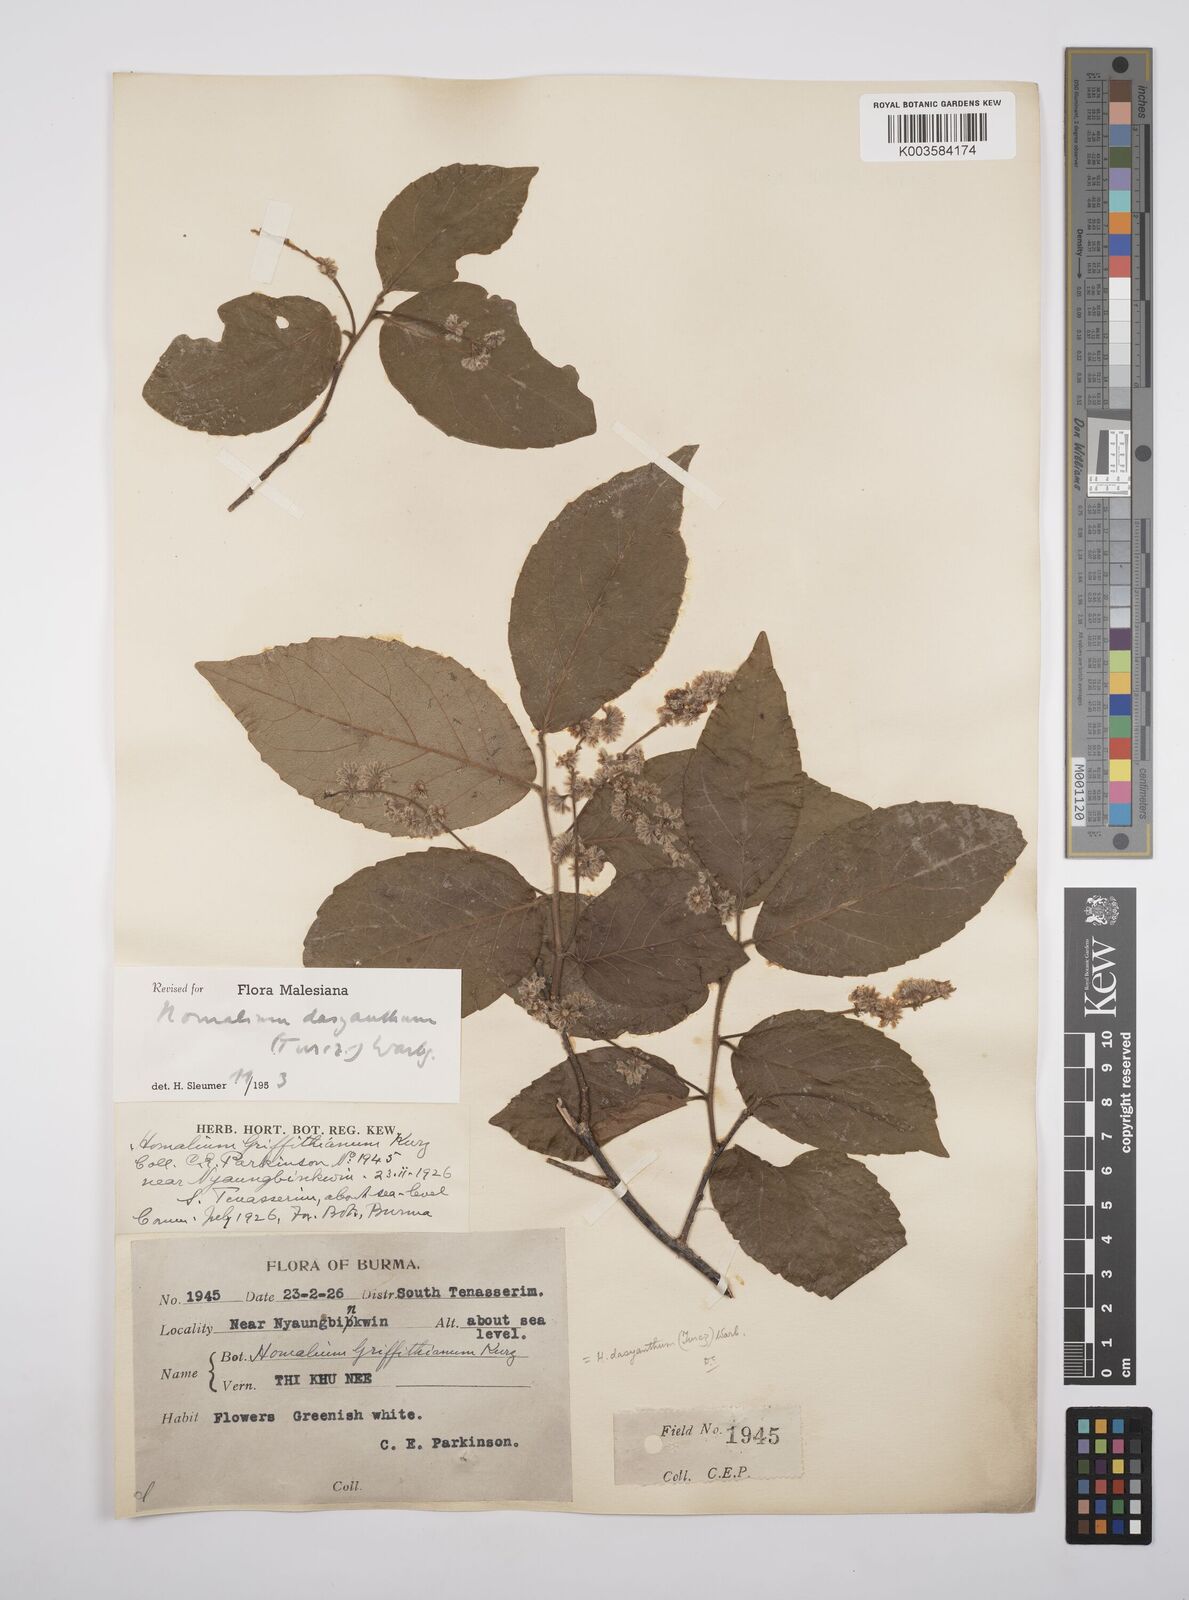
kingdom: Plantae
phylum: Tracheophyta
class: Magnoliopsida
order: Malpighiales
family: Salicaceae
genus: Homalium
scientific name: Homalium dasyanthum
